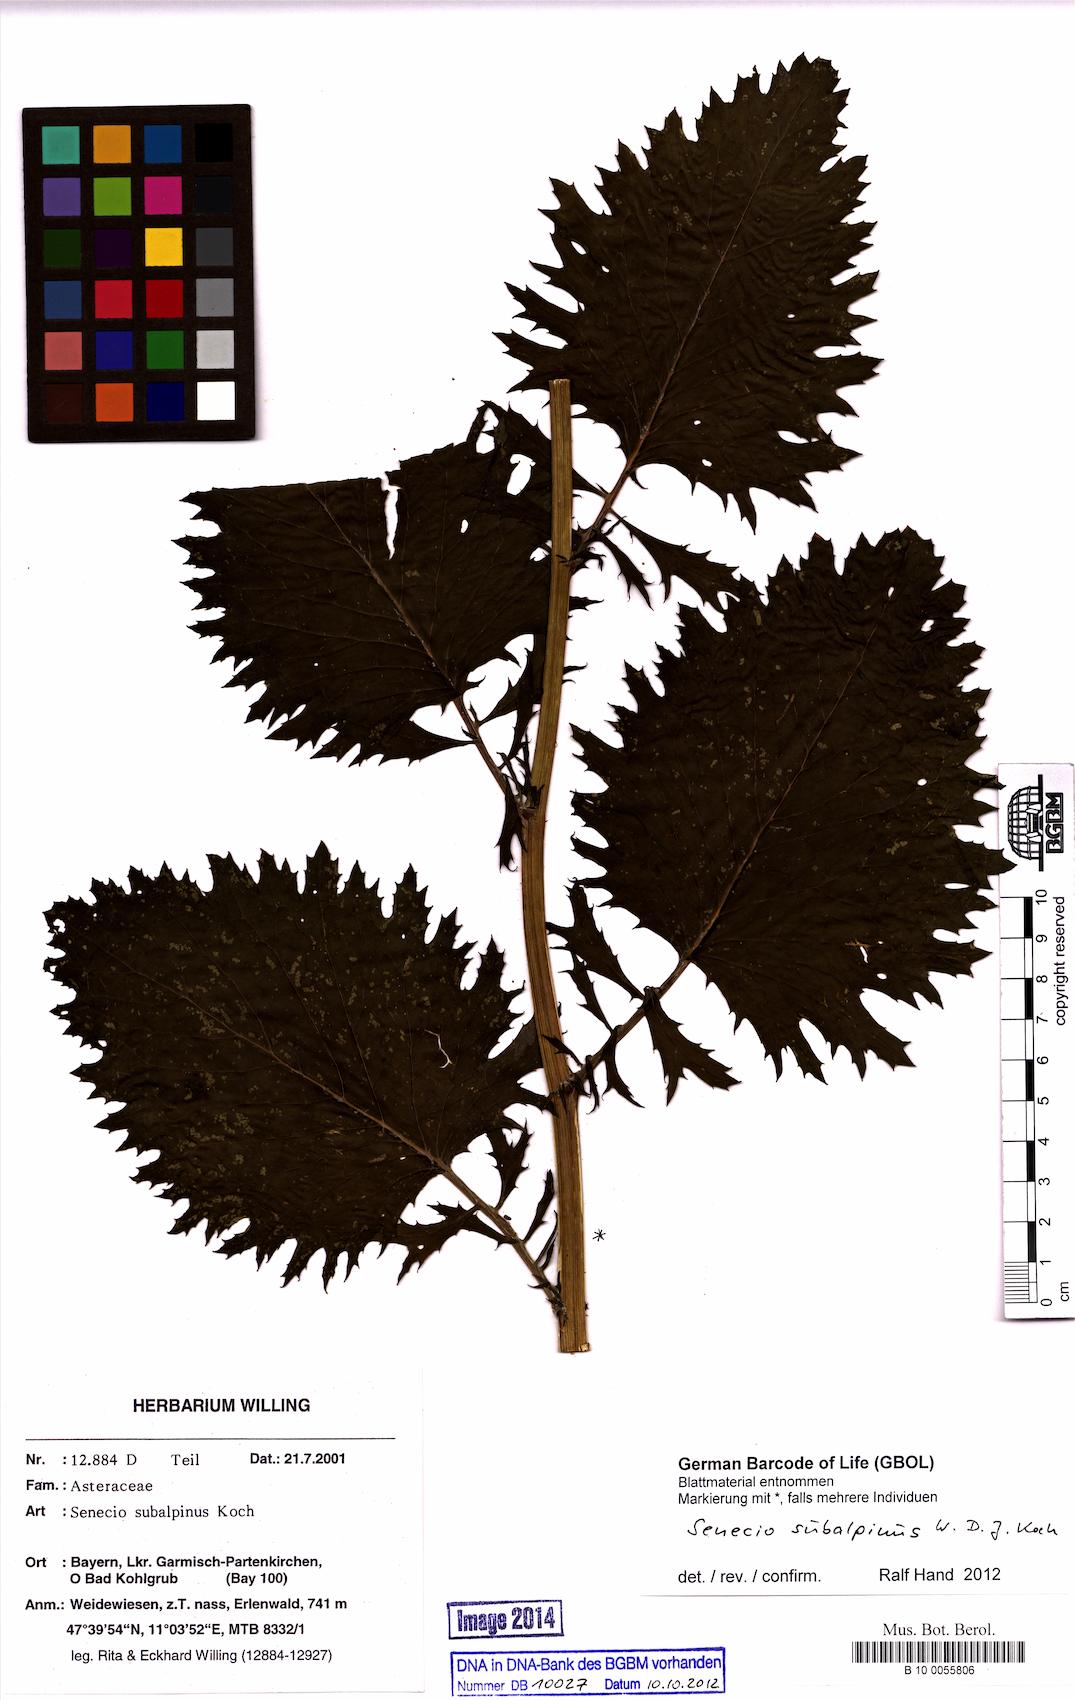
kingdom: Plantae
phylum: Tracheophyta
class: Magnoliopsida
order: Asterales
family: Asteraceae
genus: Jacobaea
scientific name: Jacobaea subalpina
